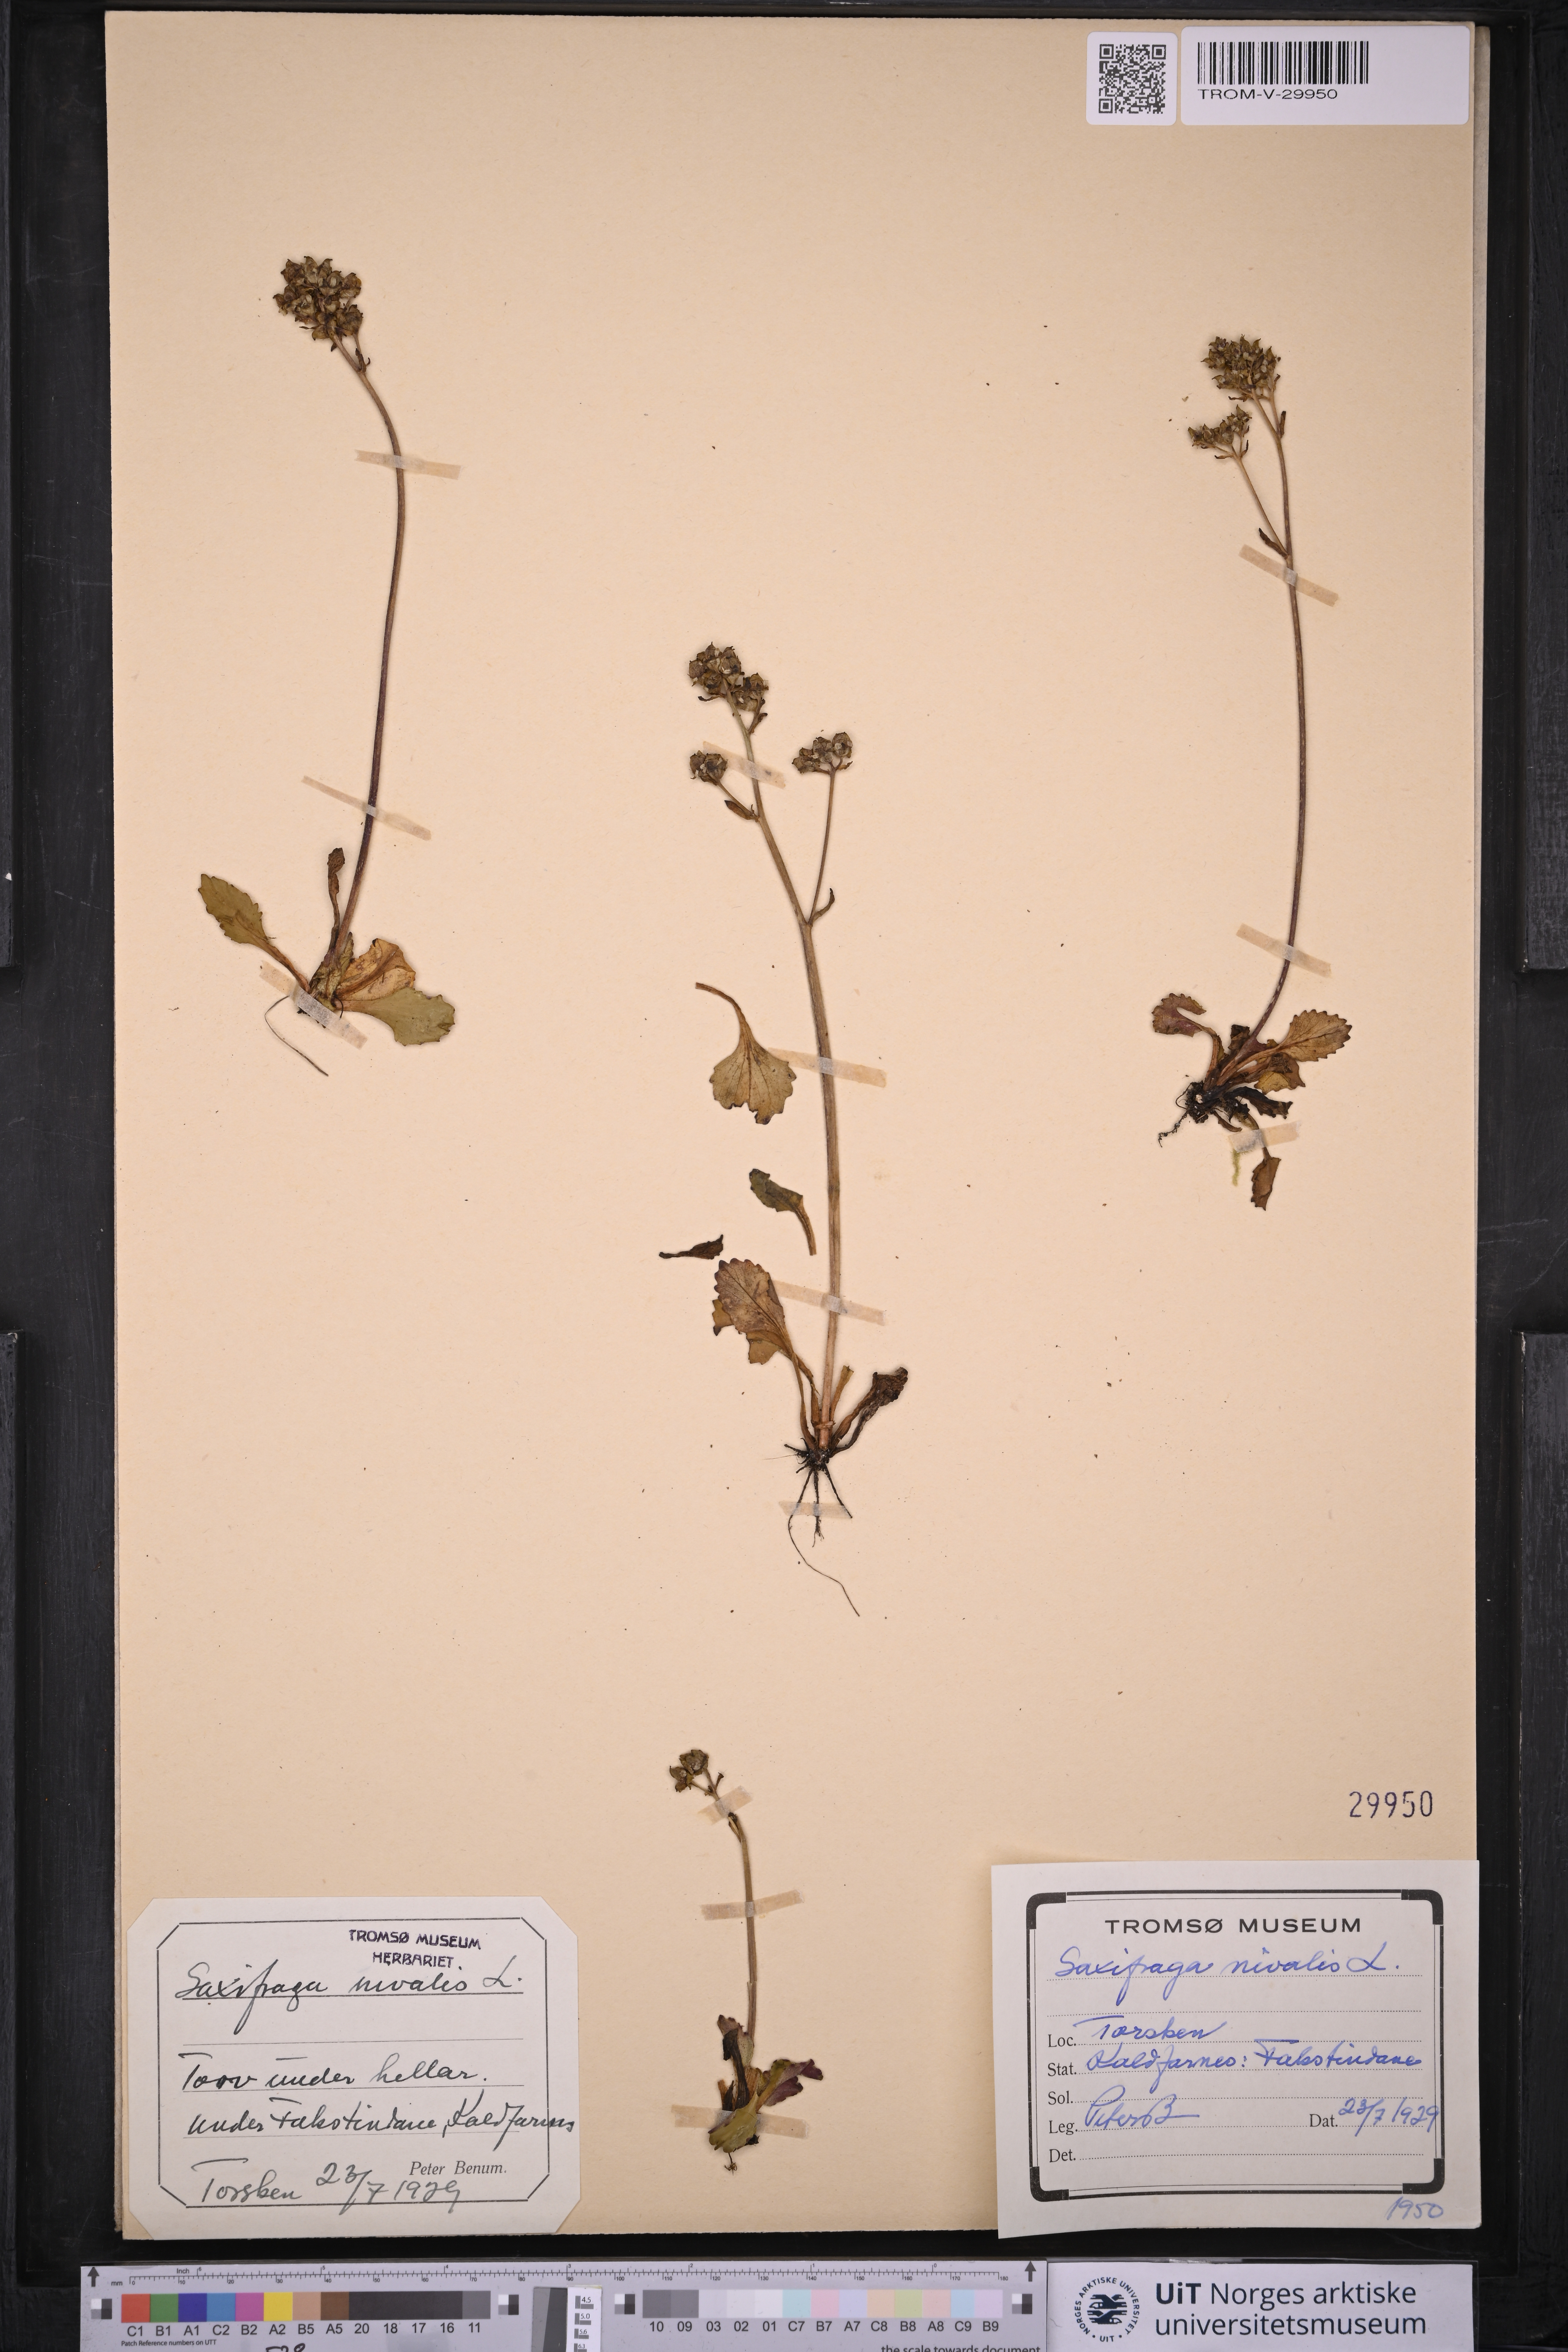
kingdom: Plantae
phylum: Tracheophyta
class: Magnoliopsida
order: Saxifragales
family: Saxifragaceae
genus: Micranthes
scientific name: Micranthes nivalis
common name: Alpine saxifrage
